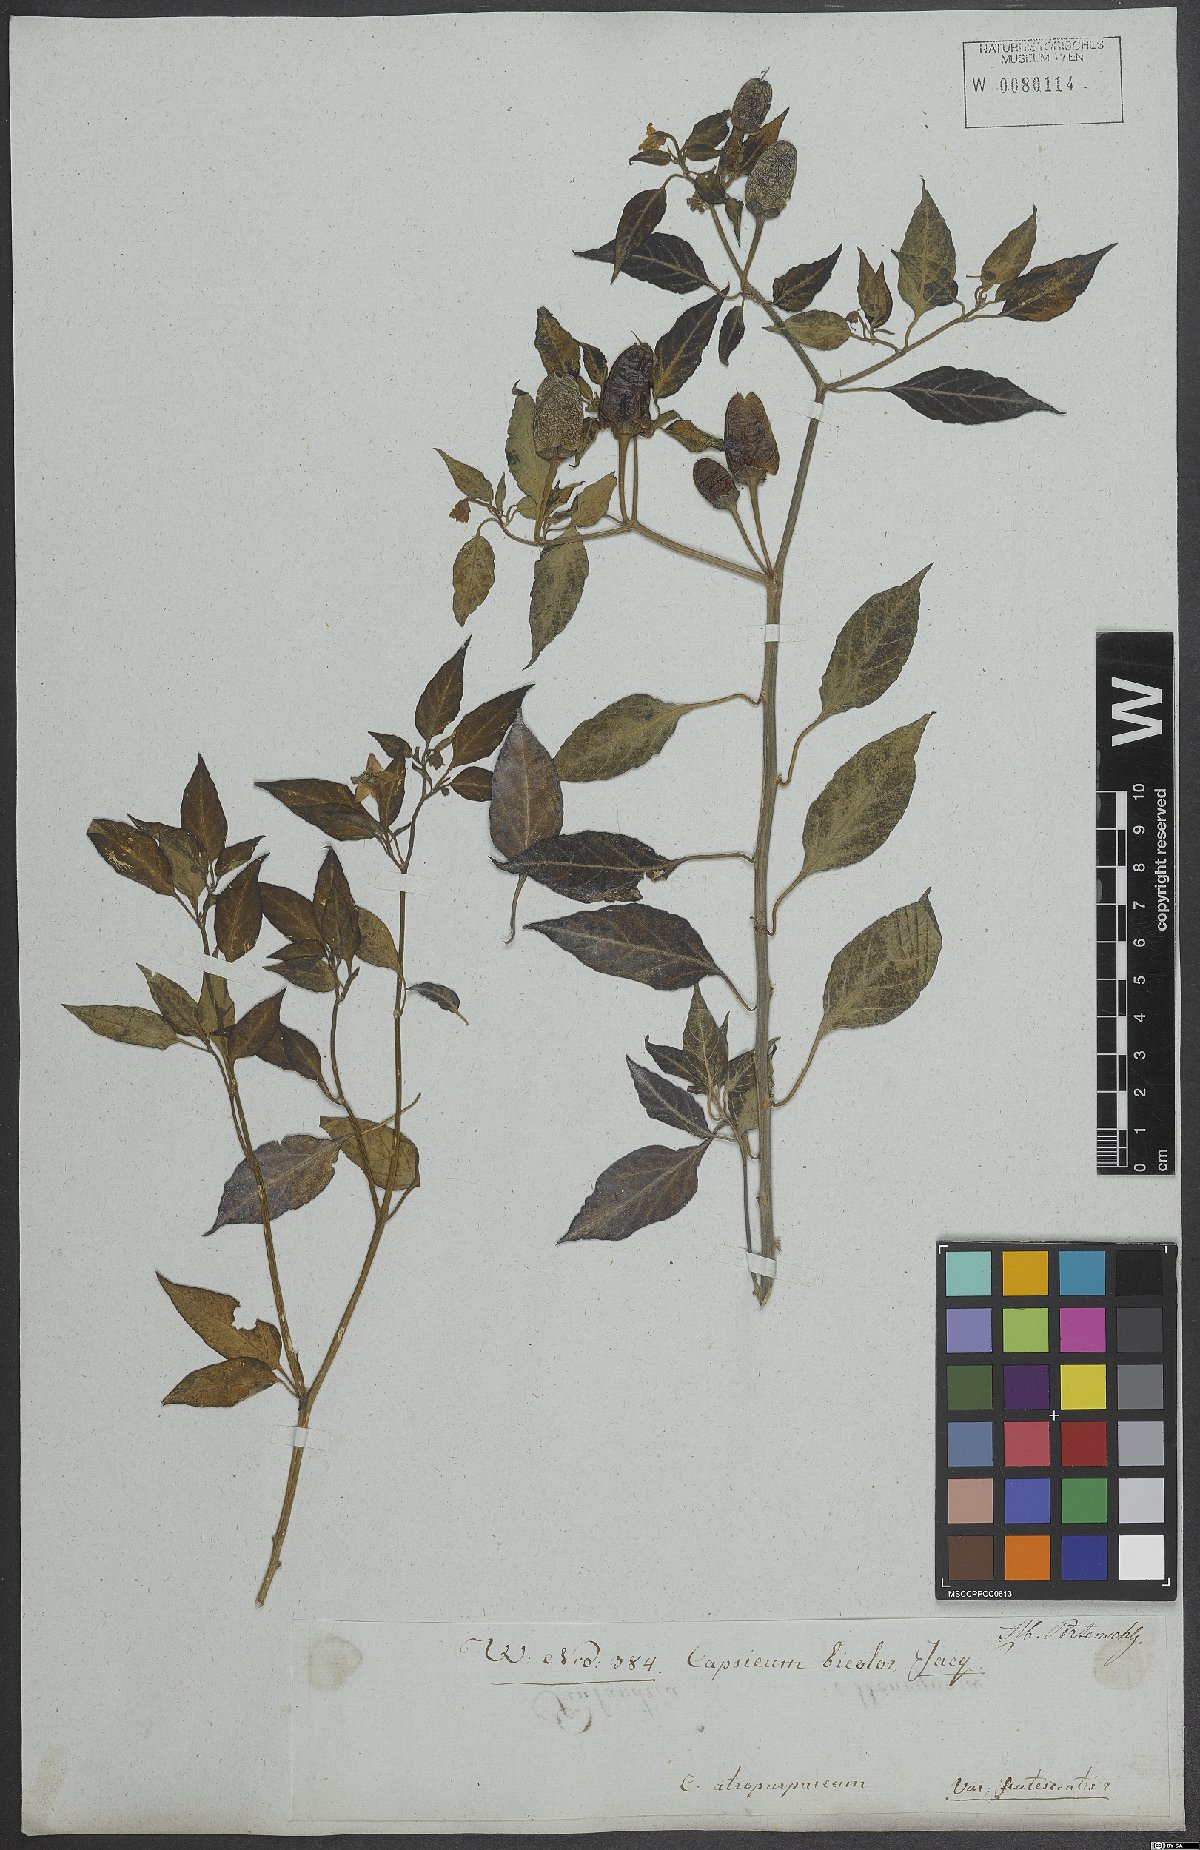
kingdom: Plantae
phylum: Tracheophyta
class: Magnoliopsida
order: Solanales
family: Solanaceae
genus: Capsicum
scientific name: Capsicum annuum
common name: Sweet pepper
